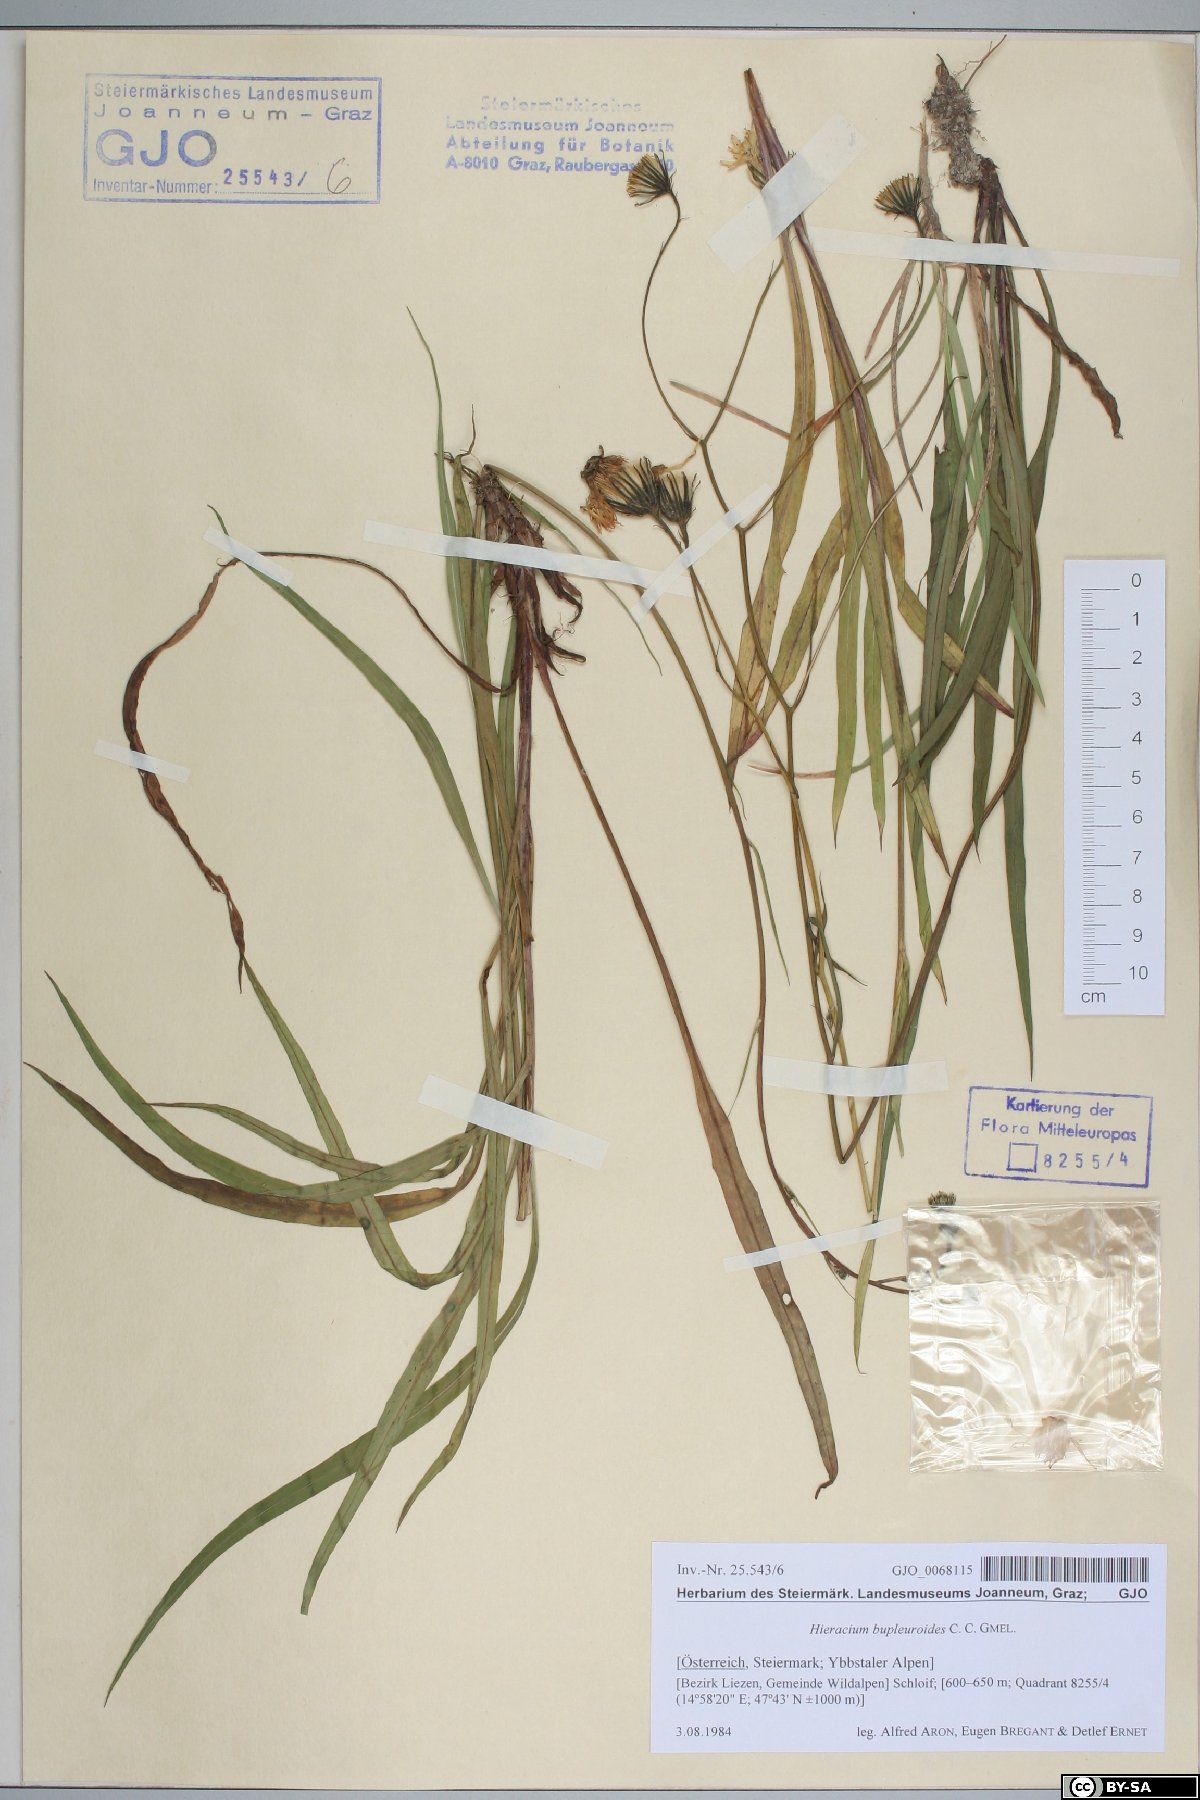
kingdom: Plantae
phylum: Tracheophyta
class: Magnoliopsida
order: Asterales
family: Asteraceae
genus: Hieracium
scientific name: Hieracium bupleuroides
